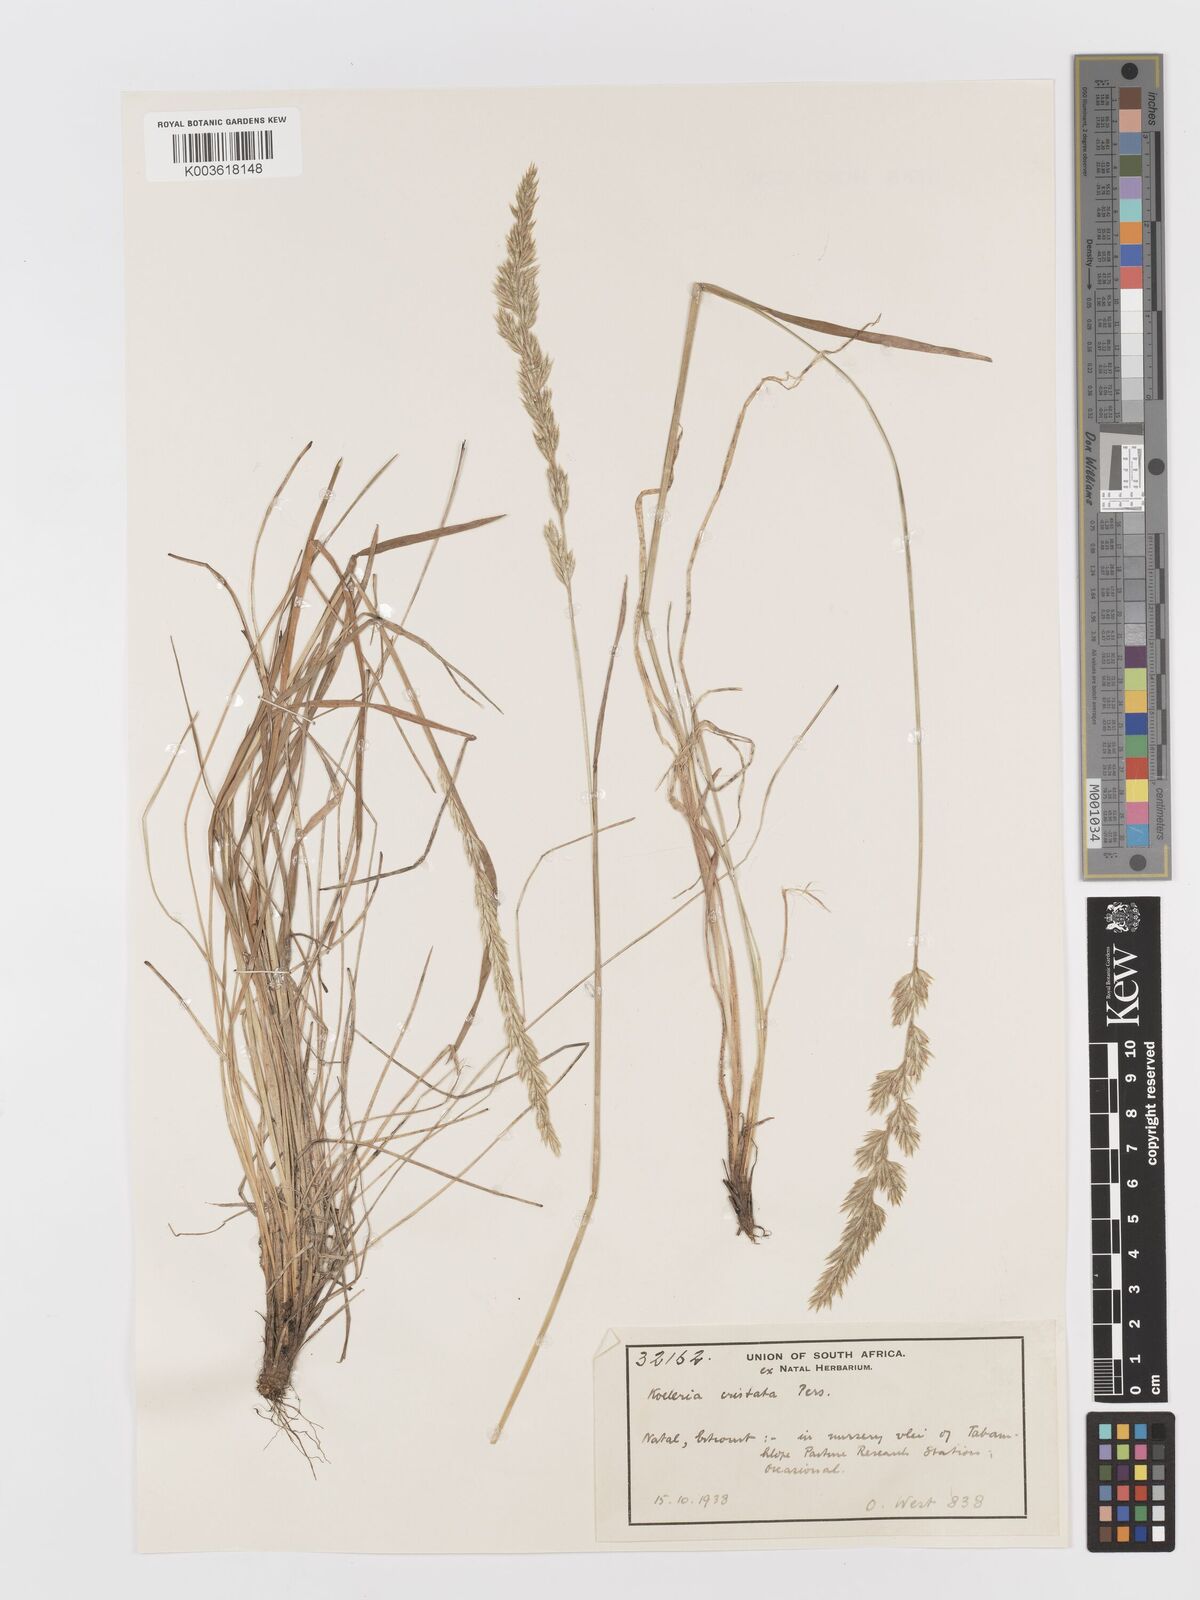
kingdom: Plantae
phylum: Tracheophyta
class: Liliopsida
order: Poales
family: Poaceae
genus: Koeleria
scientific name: Koeleria capensis
